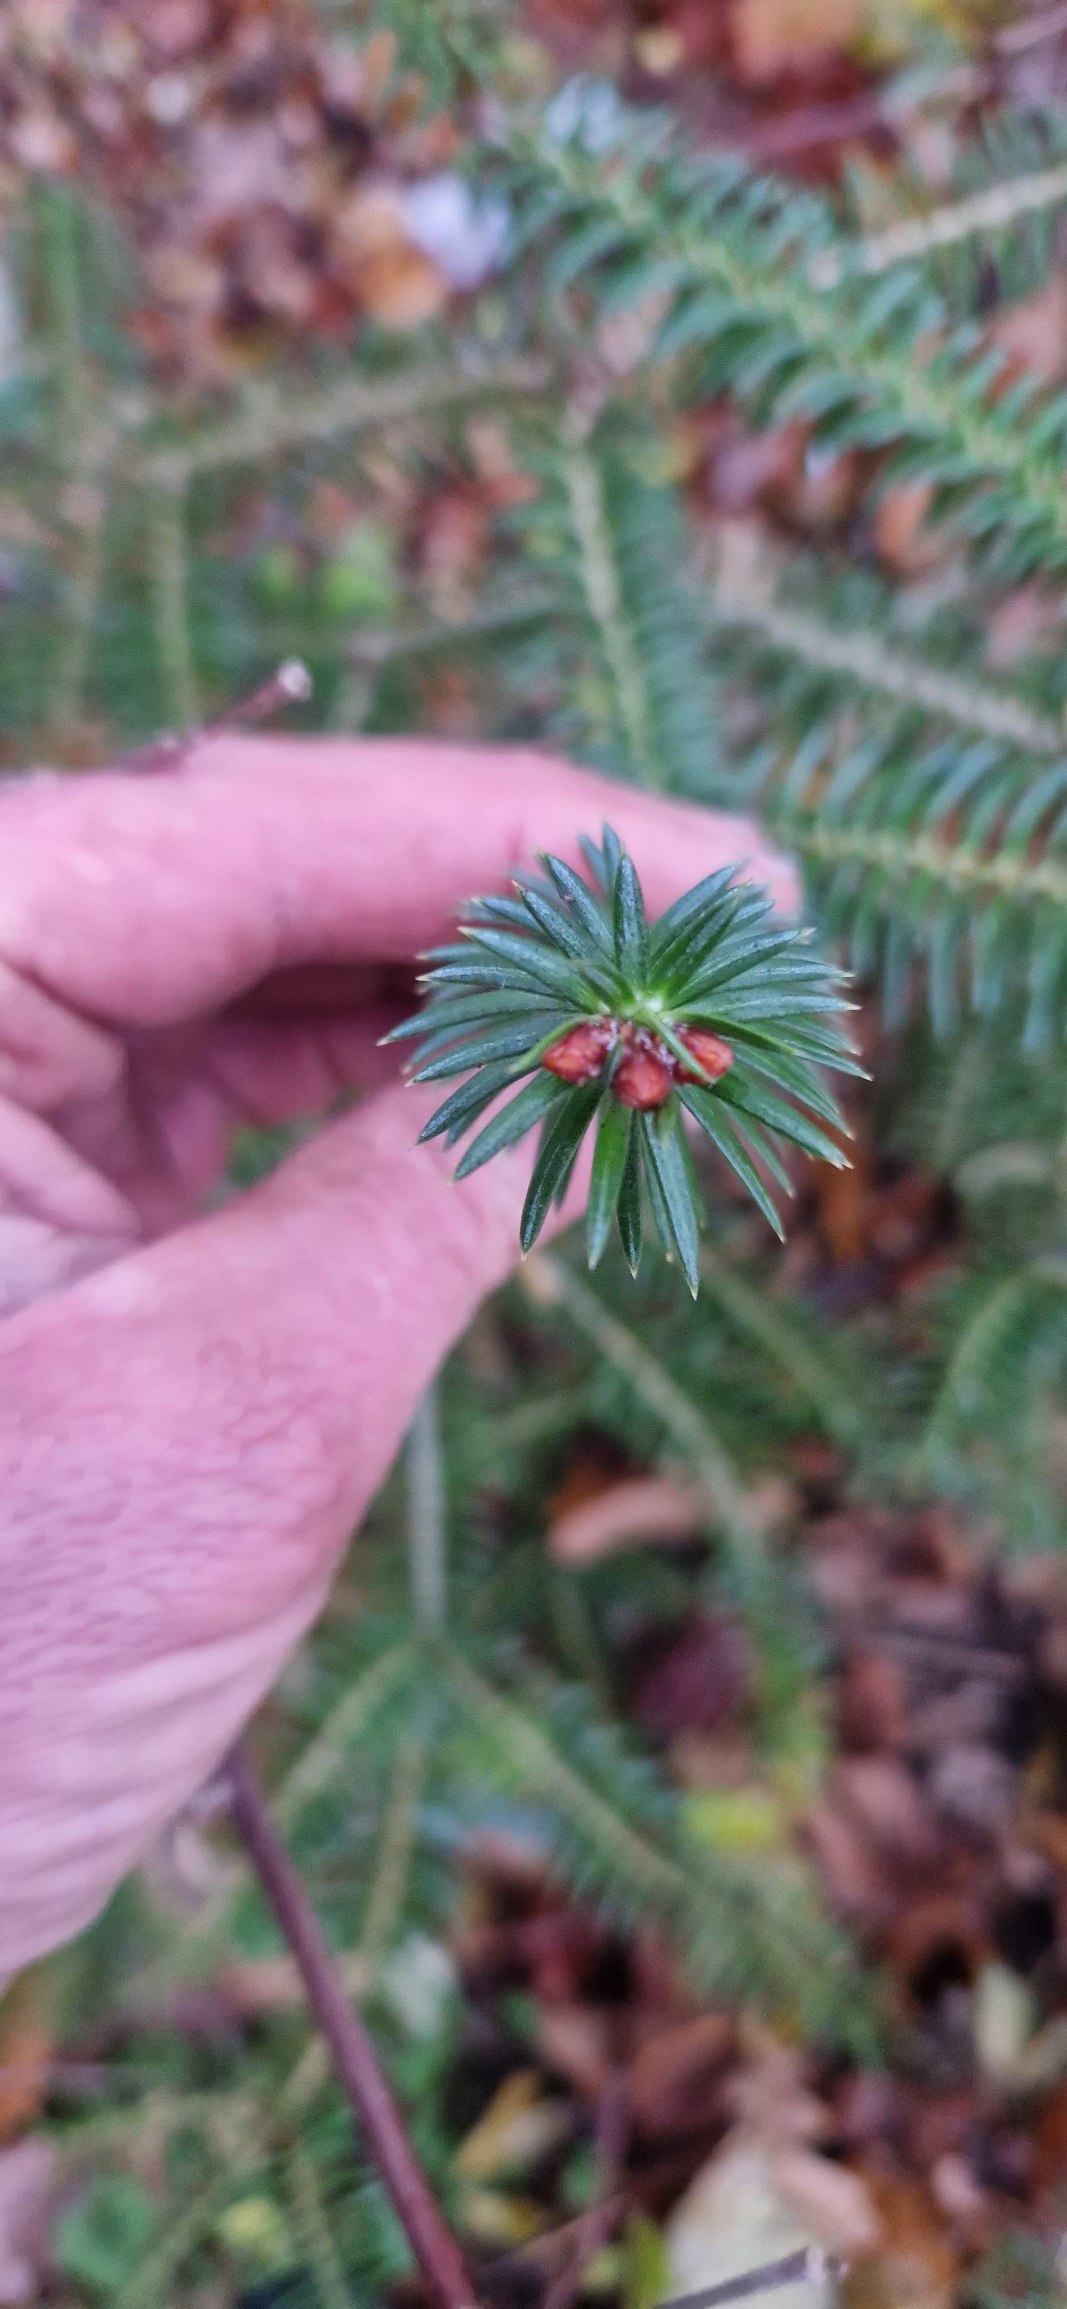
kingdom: Plantae
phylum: Tracheophyta
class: Pinopsida
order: Pinales
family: Pinaceae
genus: Abies
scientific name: Abies cephalonica
